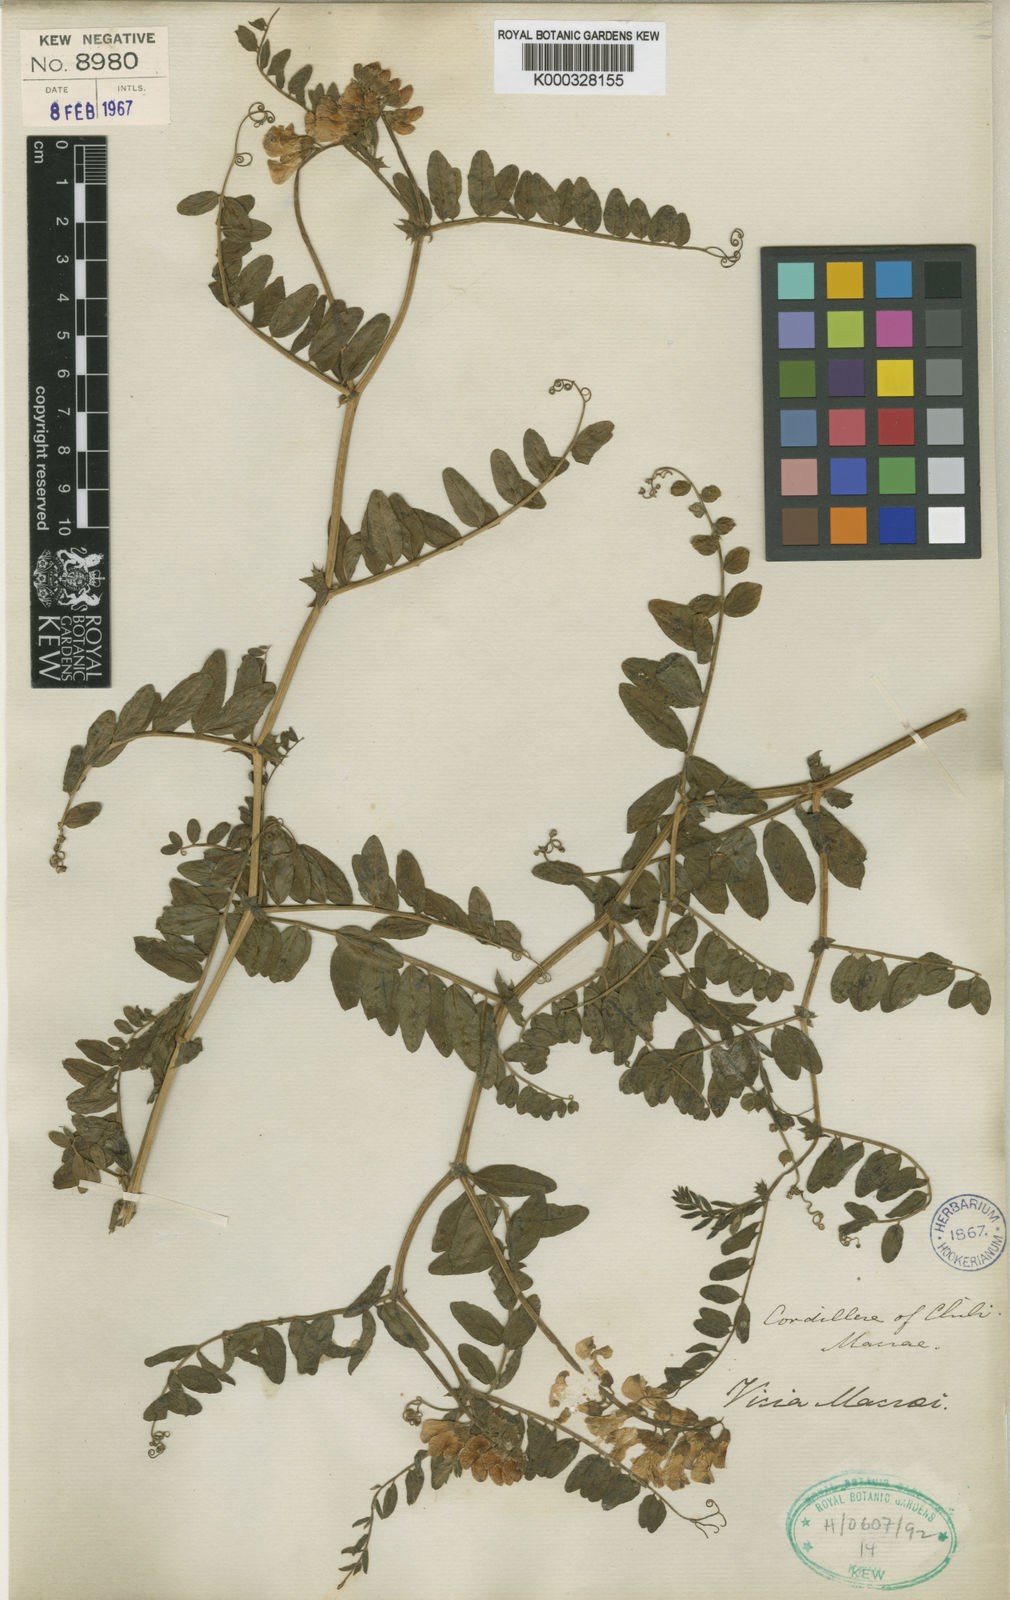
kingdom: Plantae
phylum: Tracheophyta
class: Magnoliopsida
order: Fabales
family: Fabaceae
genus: Vicia
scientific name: Vicia nigricans
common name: Black vetch
